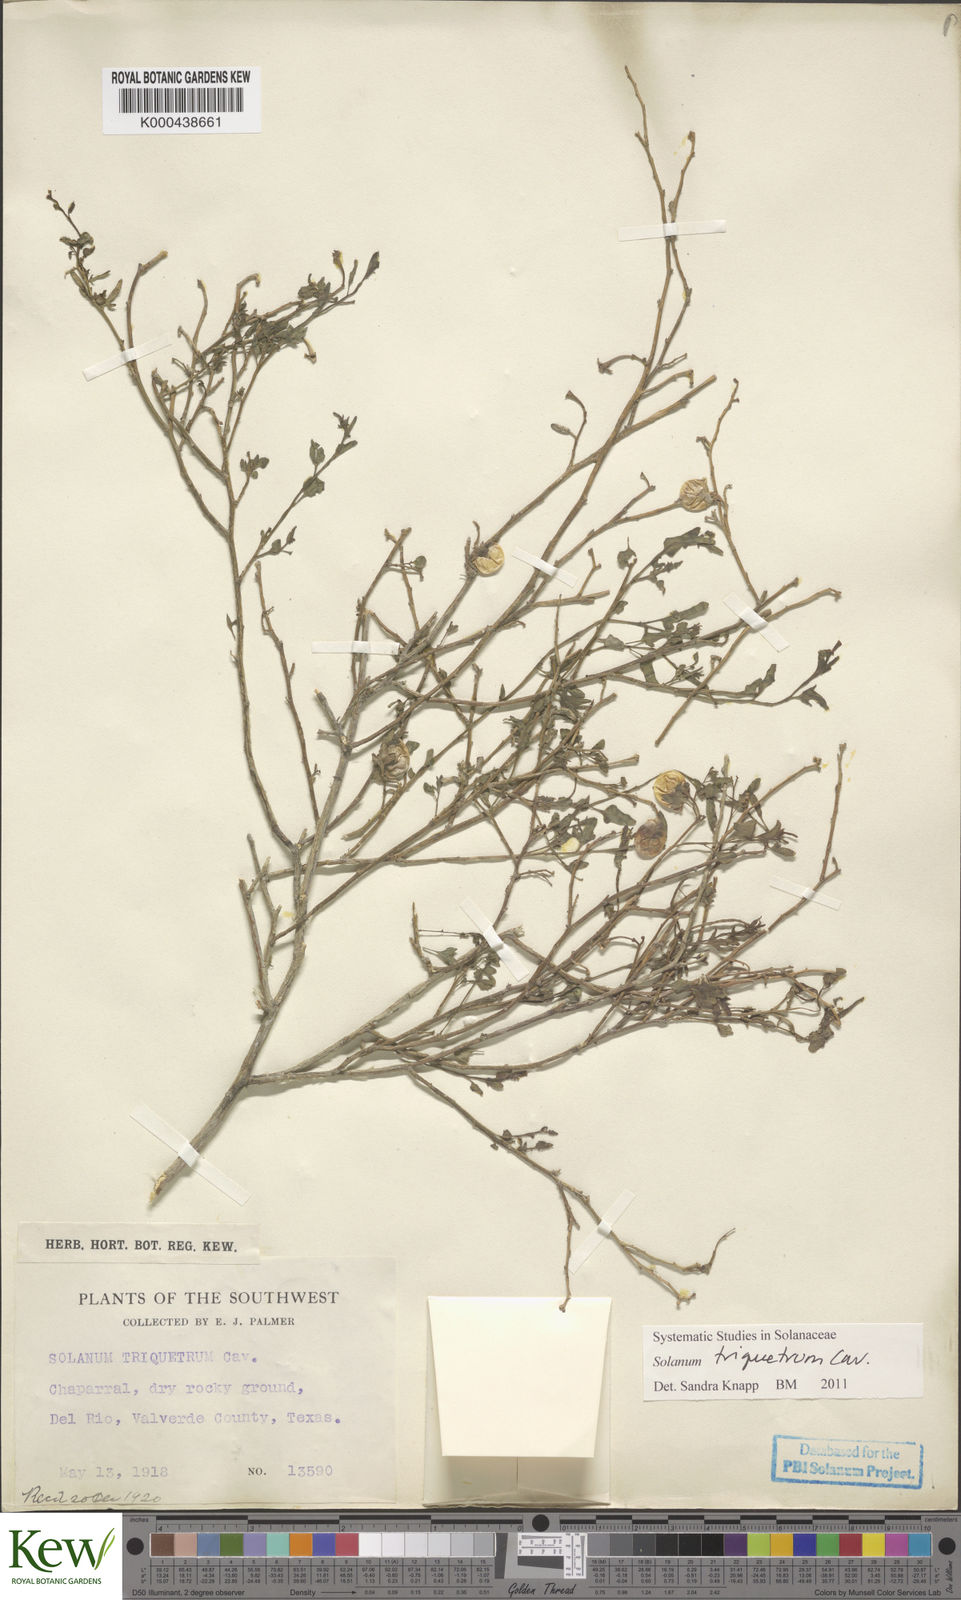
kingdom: Plantae
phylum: Tracheophyta
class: Magnoliopsida
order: Solanales
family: Solanaceae
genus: Solanum
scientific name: Solanum triquetrum
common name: Texas nightshade
